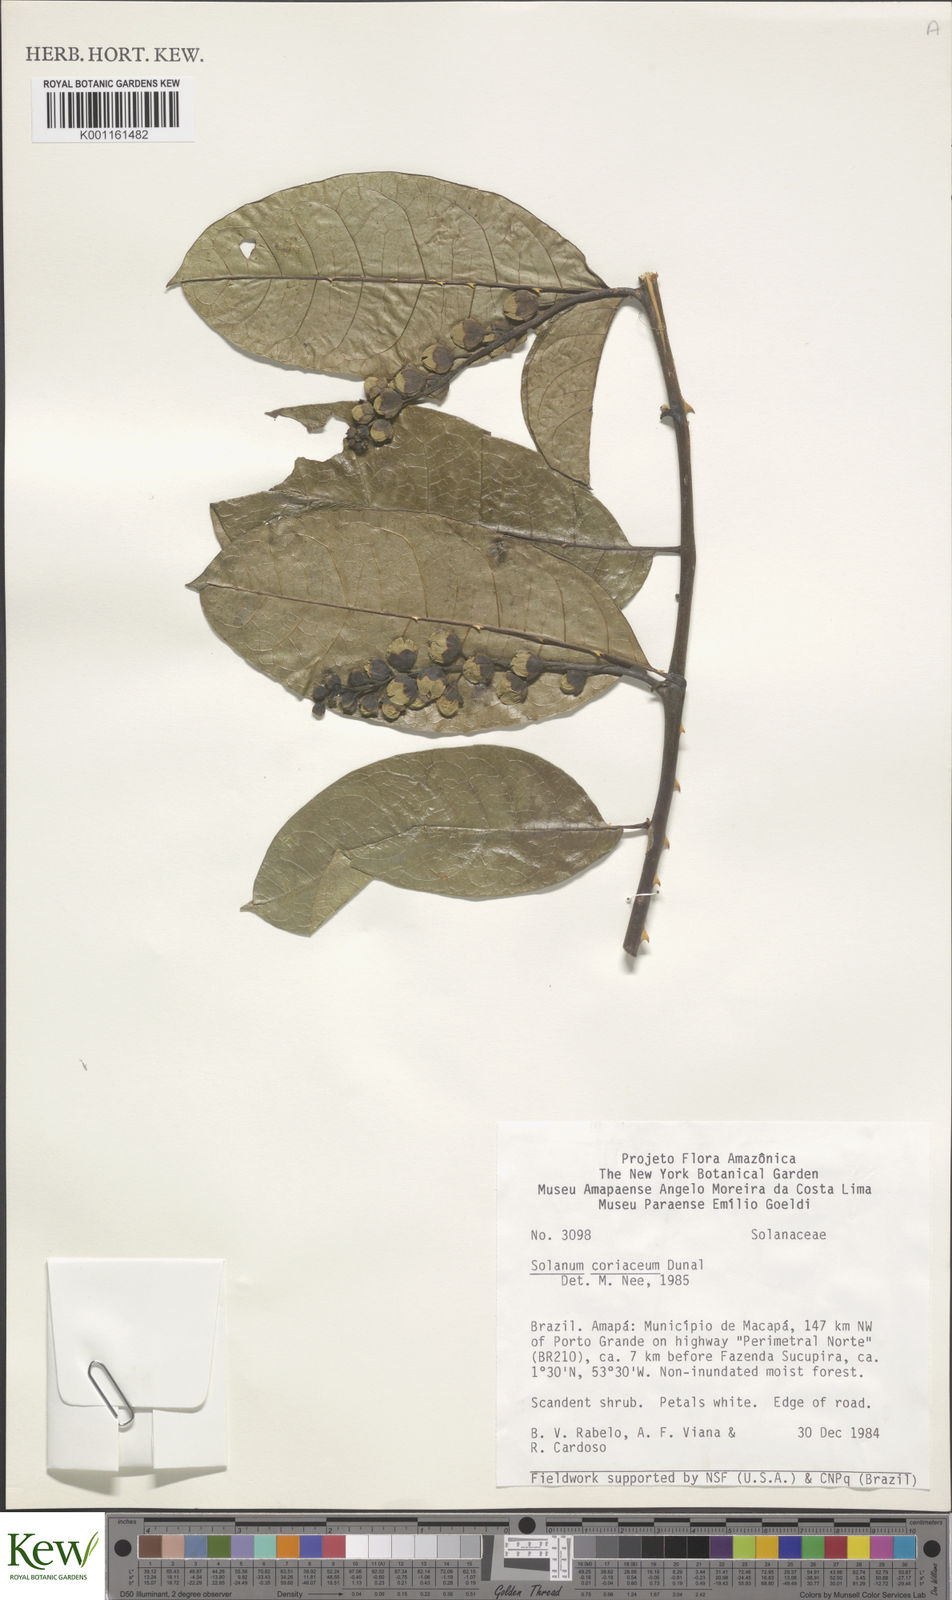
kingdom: Plantae
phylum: Tracheophyta
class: Magnoliopsida
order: Solanales
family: Solanaceae
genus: Solanum
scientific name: Solanum coriaceum
